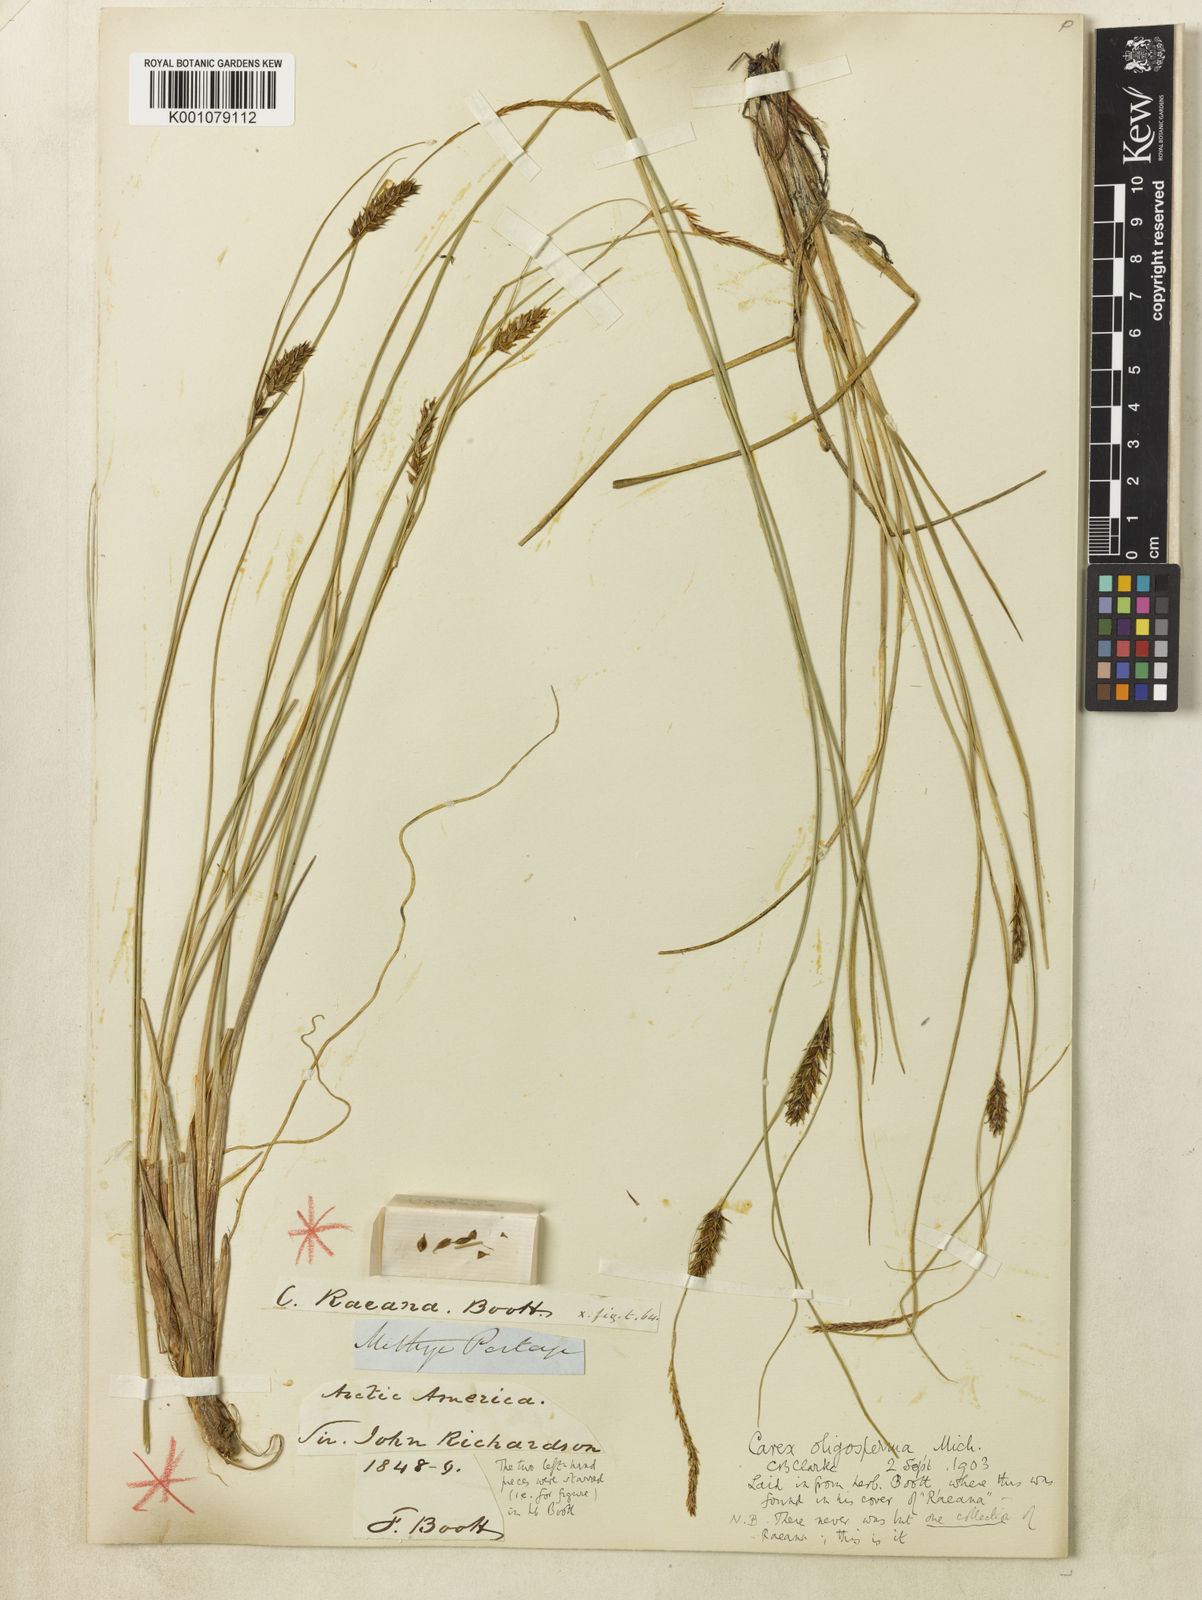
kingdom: Plantae
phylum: Tracheophyta
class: Liliopsida
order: Poales
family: Cyperaceae
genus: Carex
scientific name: Carex vesicaria
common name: Bladder-sedge
